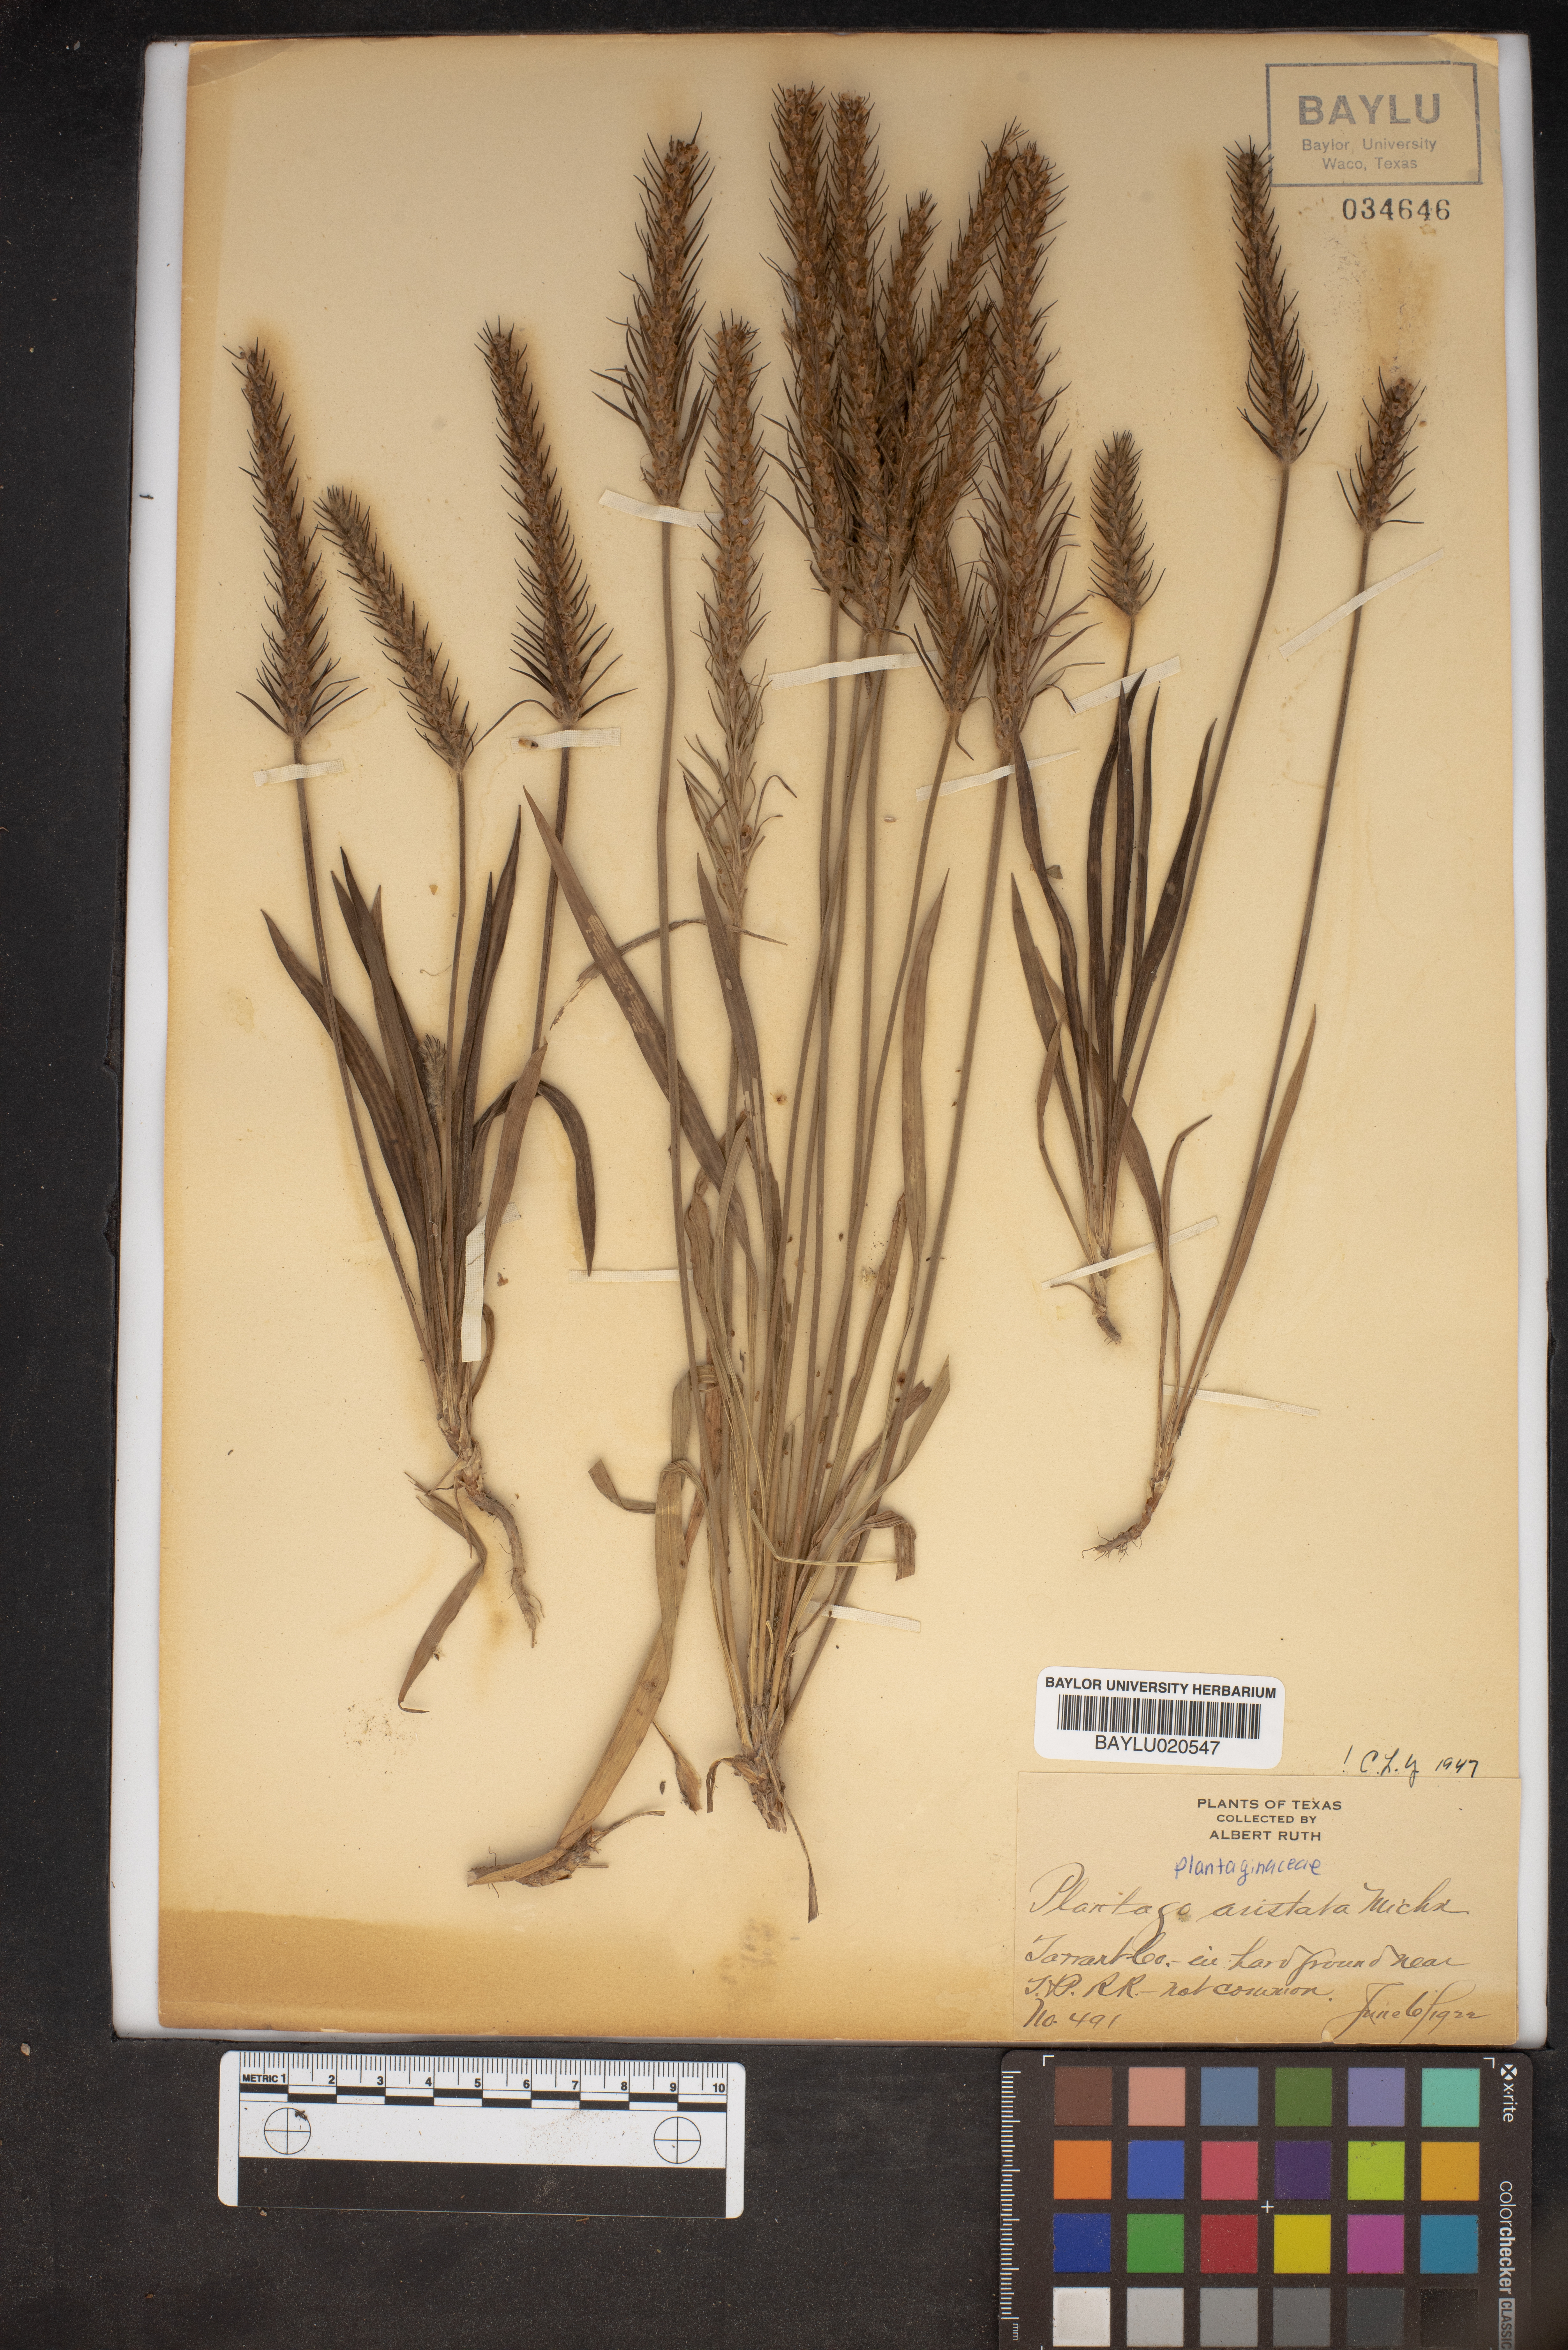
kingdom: Plantae
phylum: Tracheophyta
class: Magnoliopsida
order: Lamiales
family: Plantaginaceae
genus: Plantago
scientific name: Plantago aristata
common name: Bracted plantain
